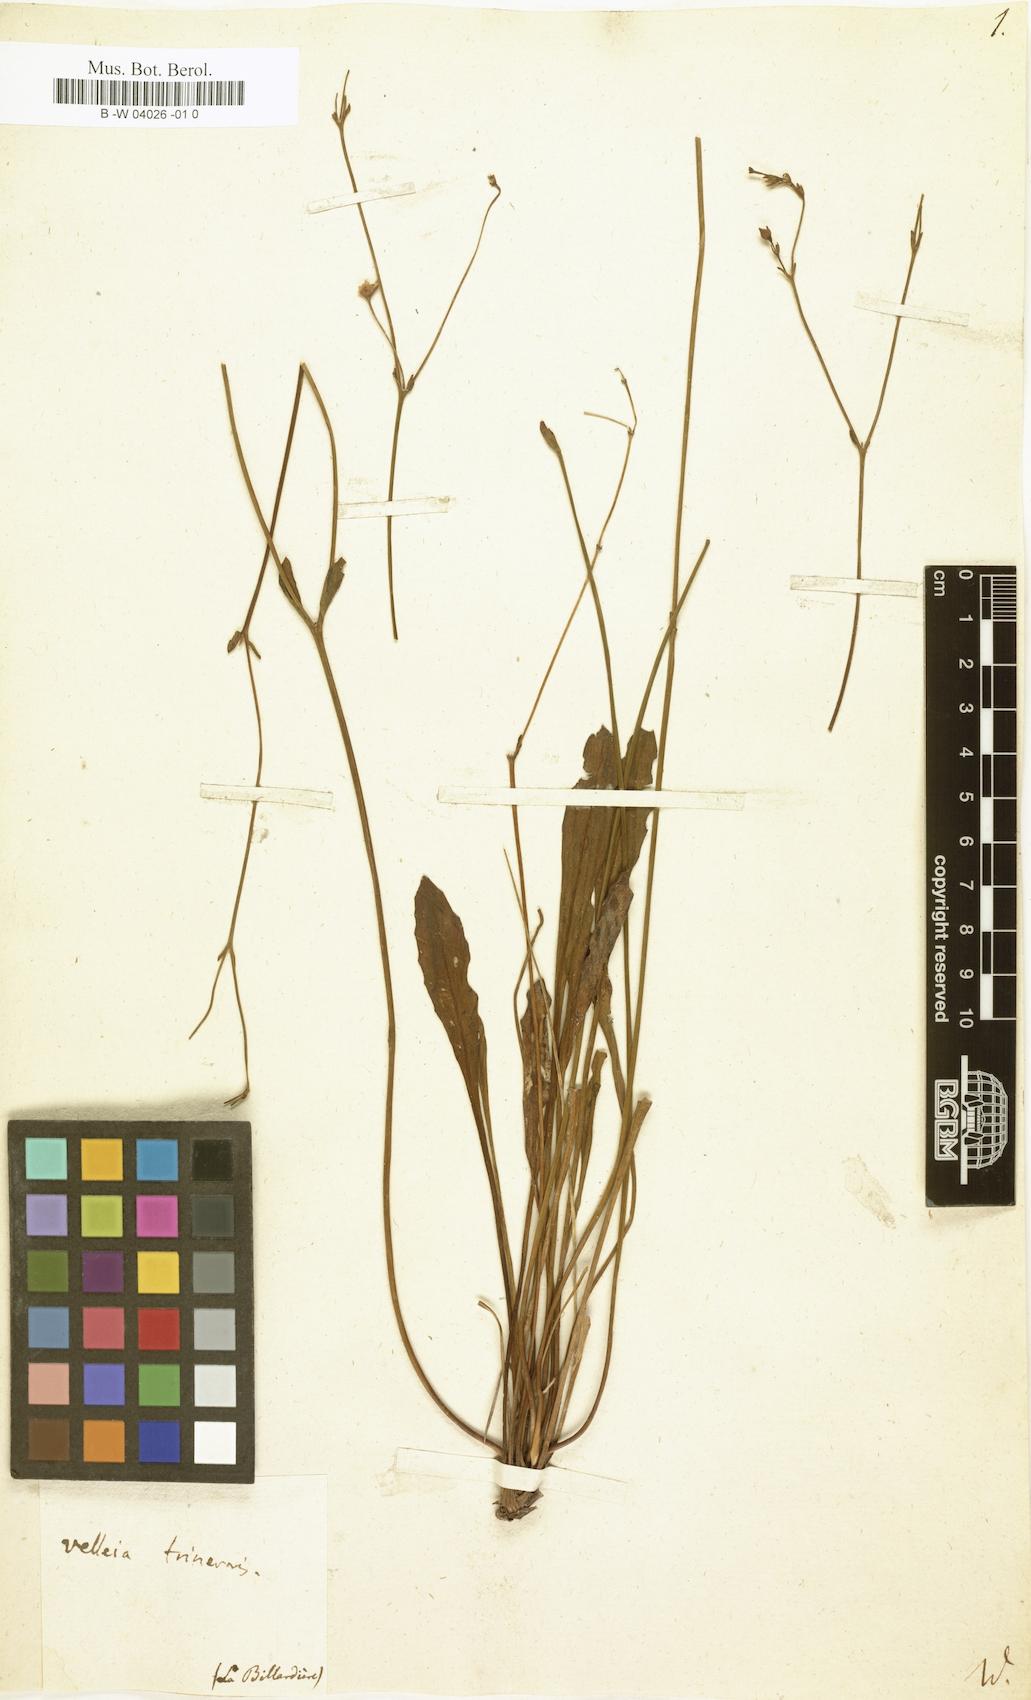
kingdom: Plantae
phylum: Tracheophyta
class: Magnoliopsida
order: Asterales
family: Goodeniaceae
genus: Goodenia
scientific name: Goodenia trinervis
